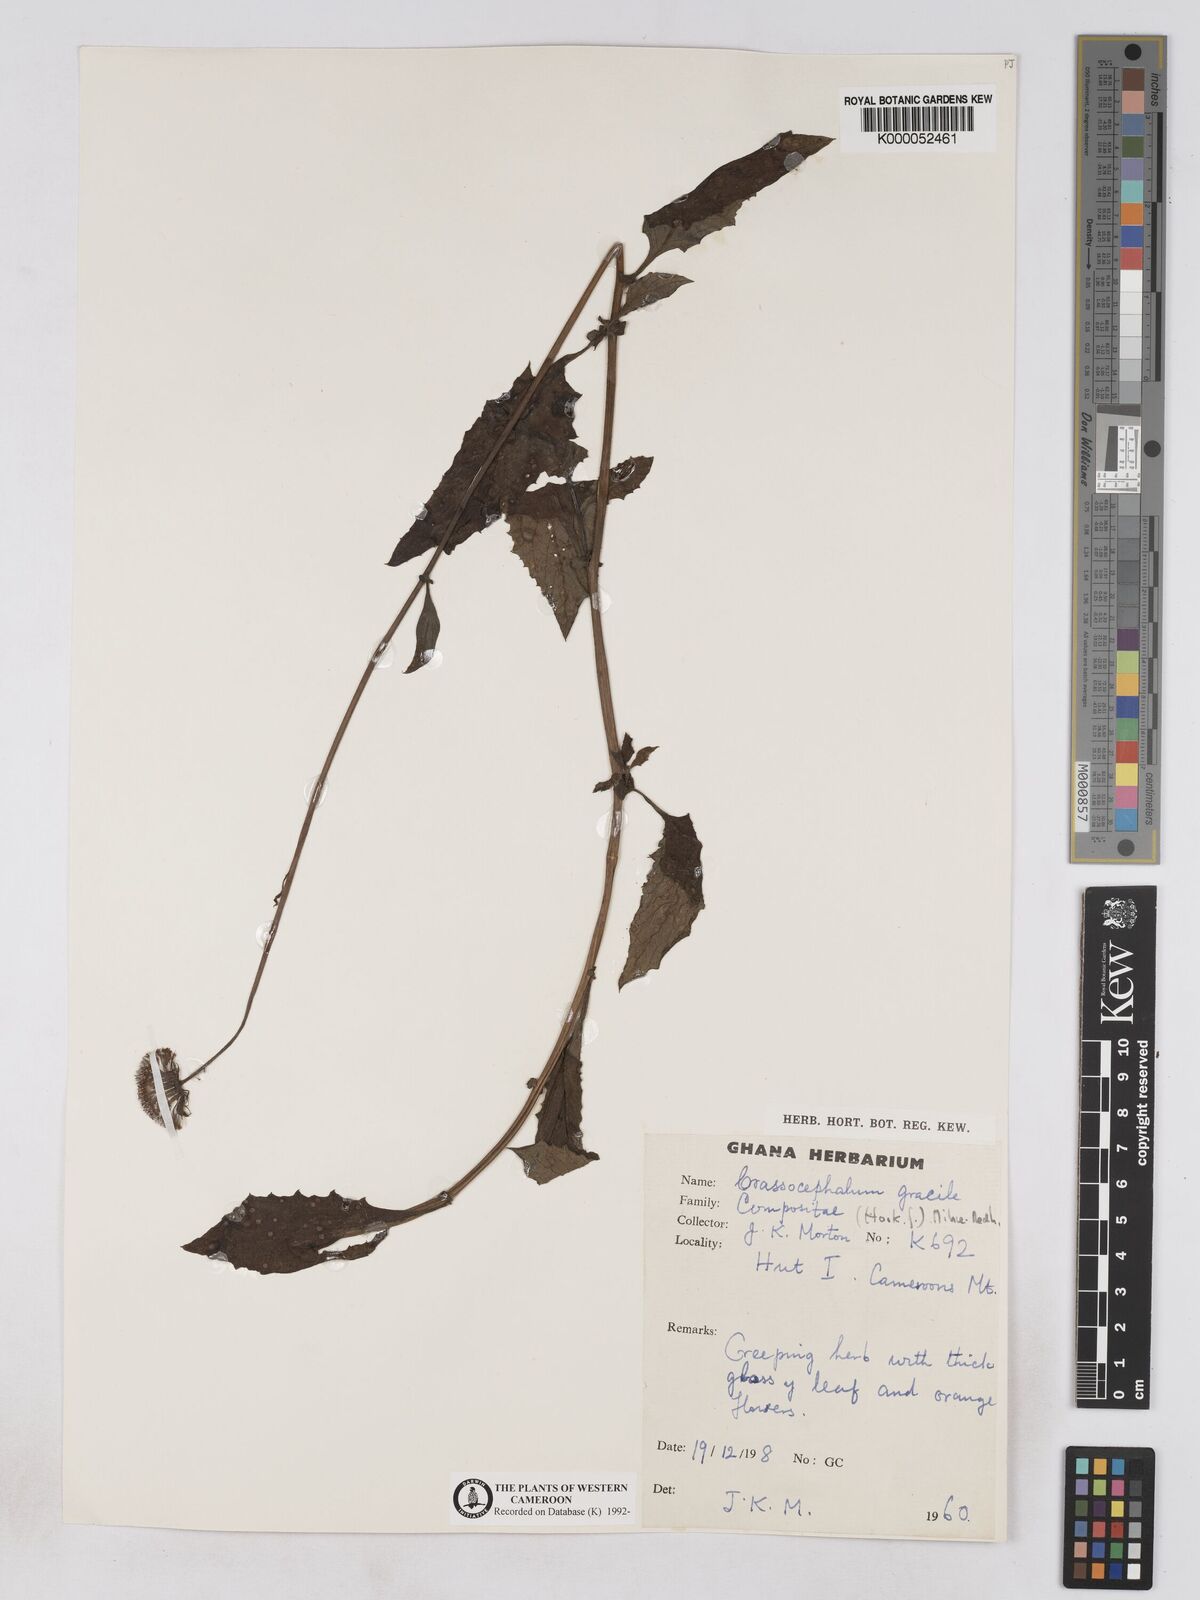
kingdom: Plantae
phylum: Tracheophyta
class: Magnoliopsida
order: Asterales
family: Asteraceae
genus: Crassocephalum
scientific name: Crassocephalum
